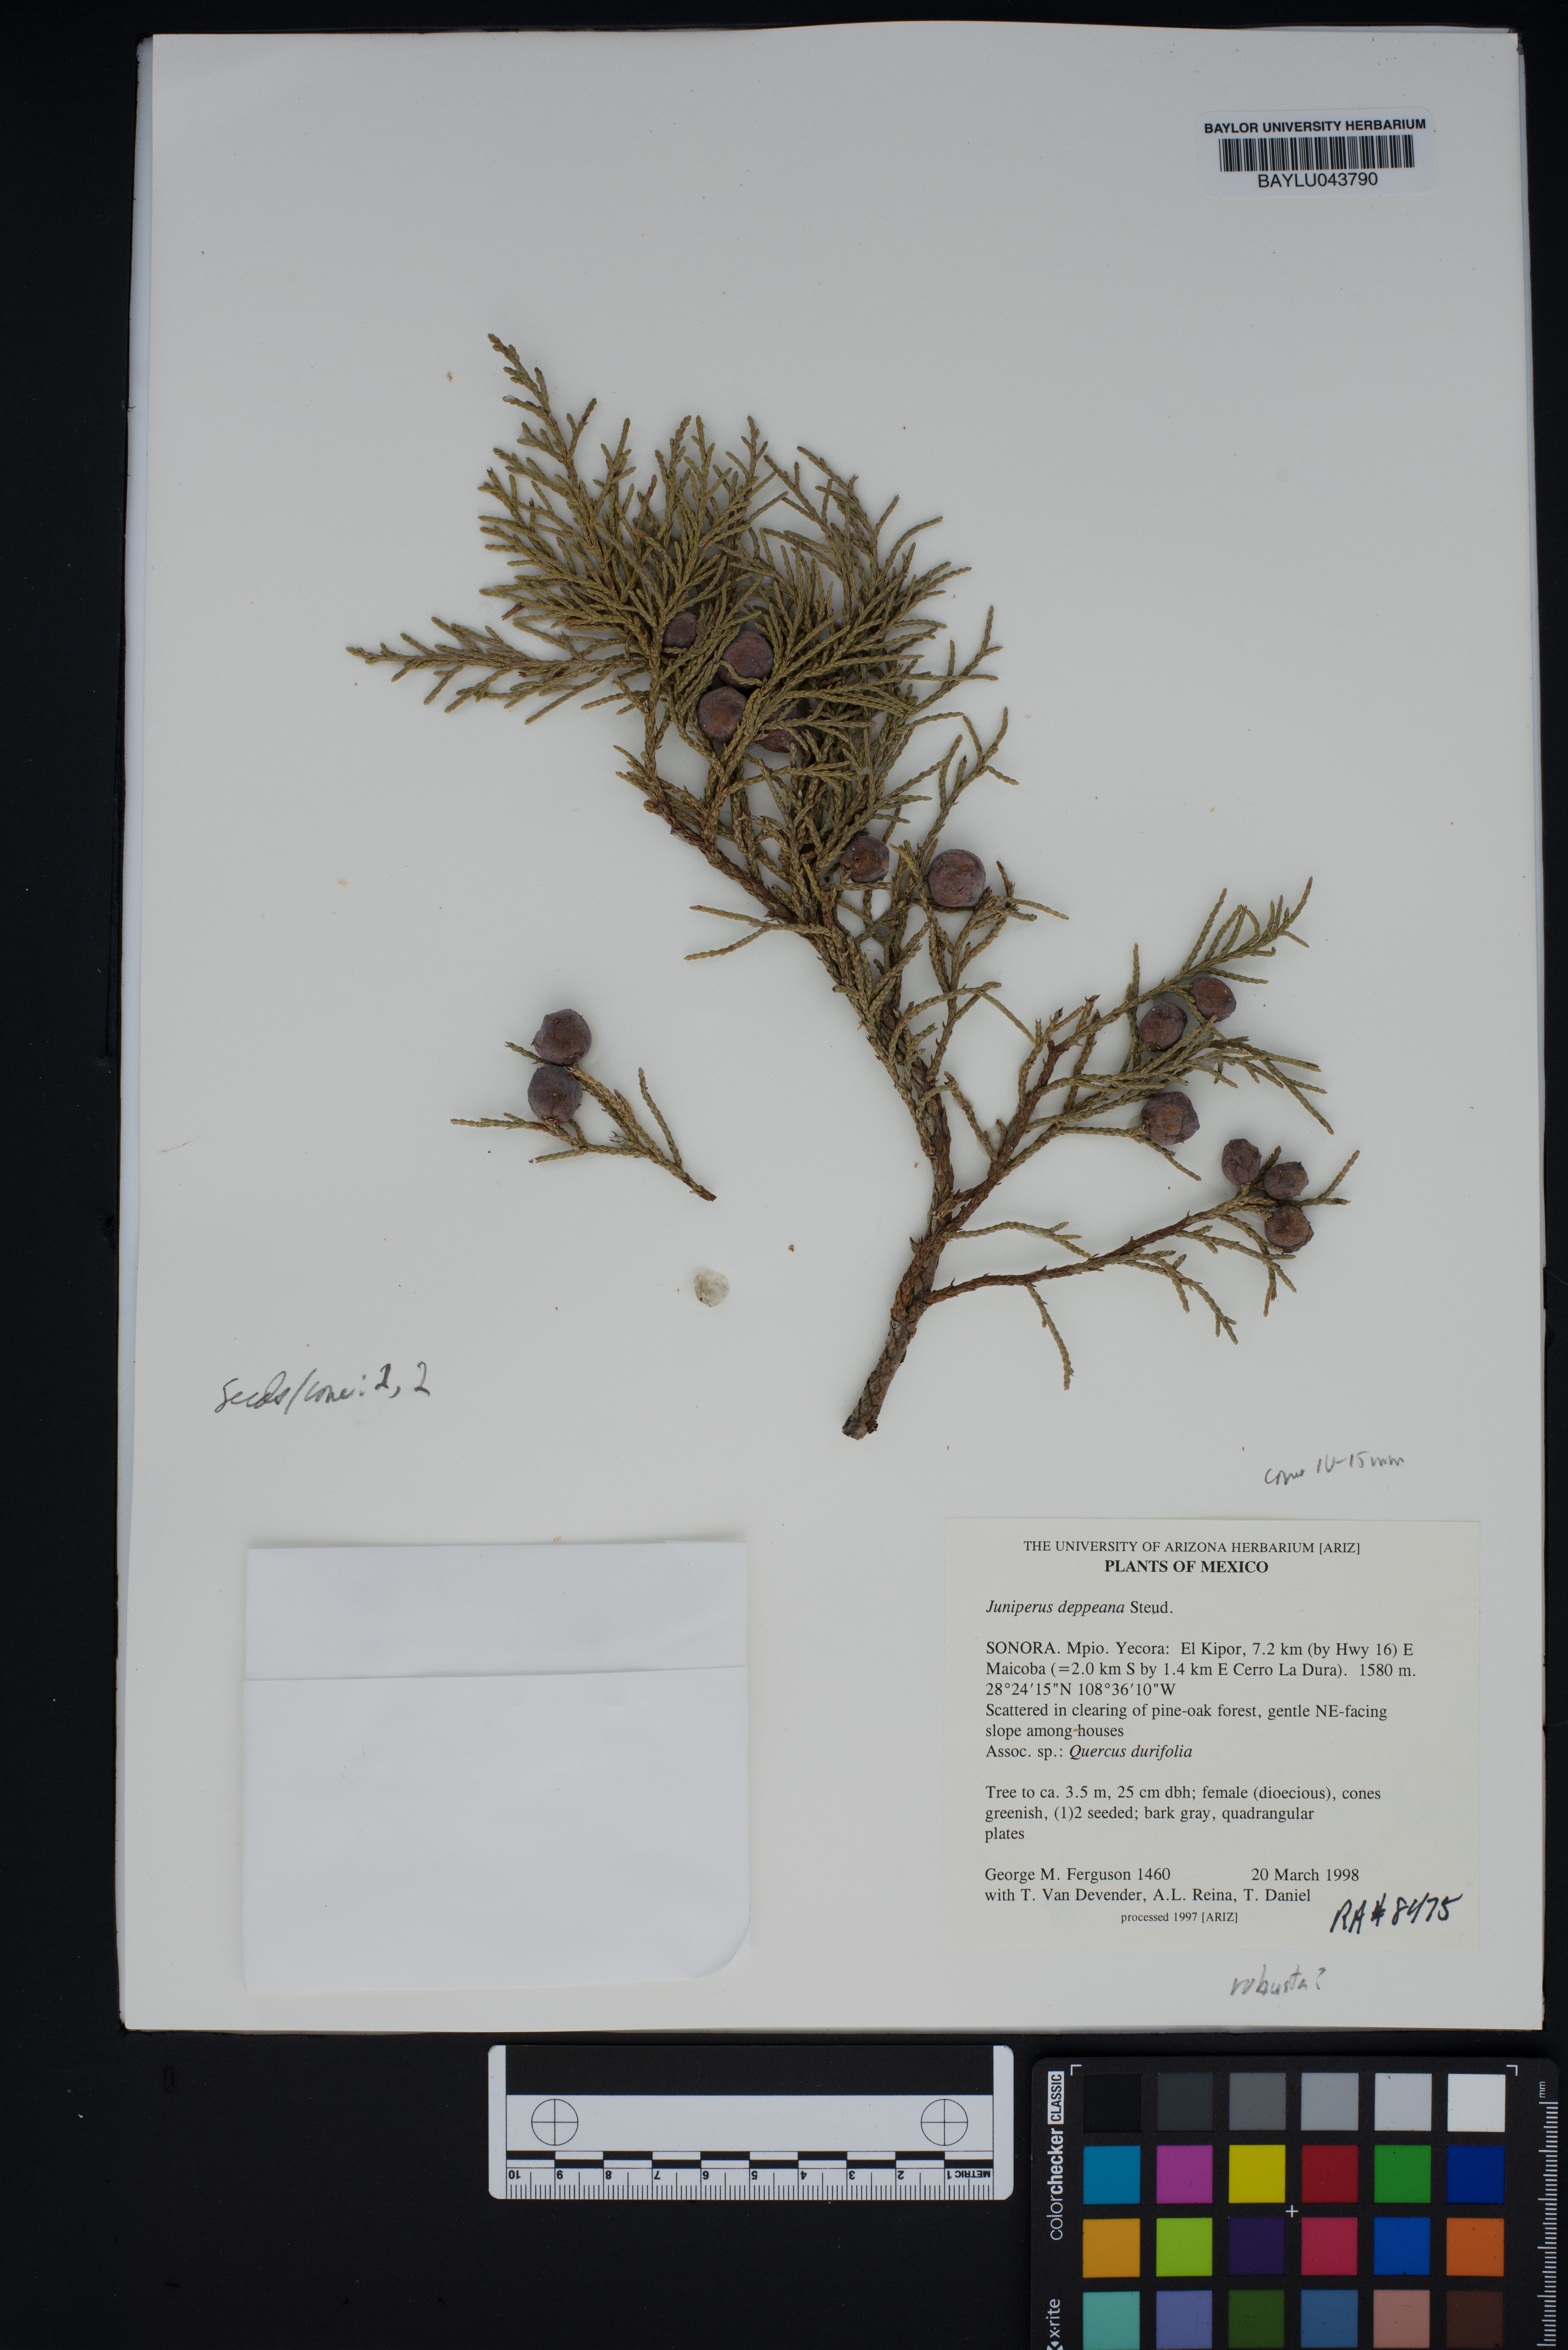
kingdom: Plantae
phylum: Tracheophyta
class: Pinopsida
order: Pinales
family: Cupressaceae
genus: Juniperus
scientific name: Juniperus deppeana
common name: Alligator juniper
